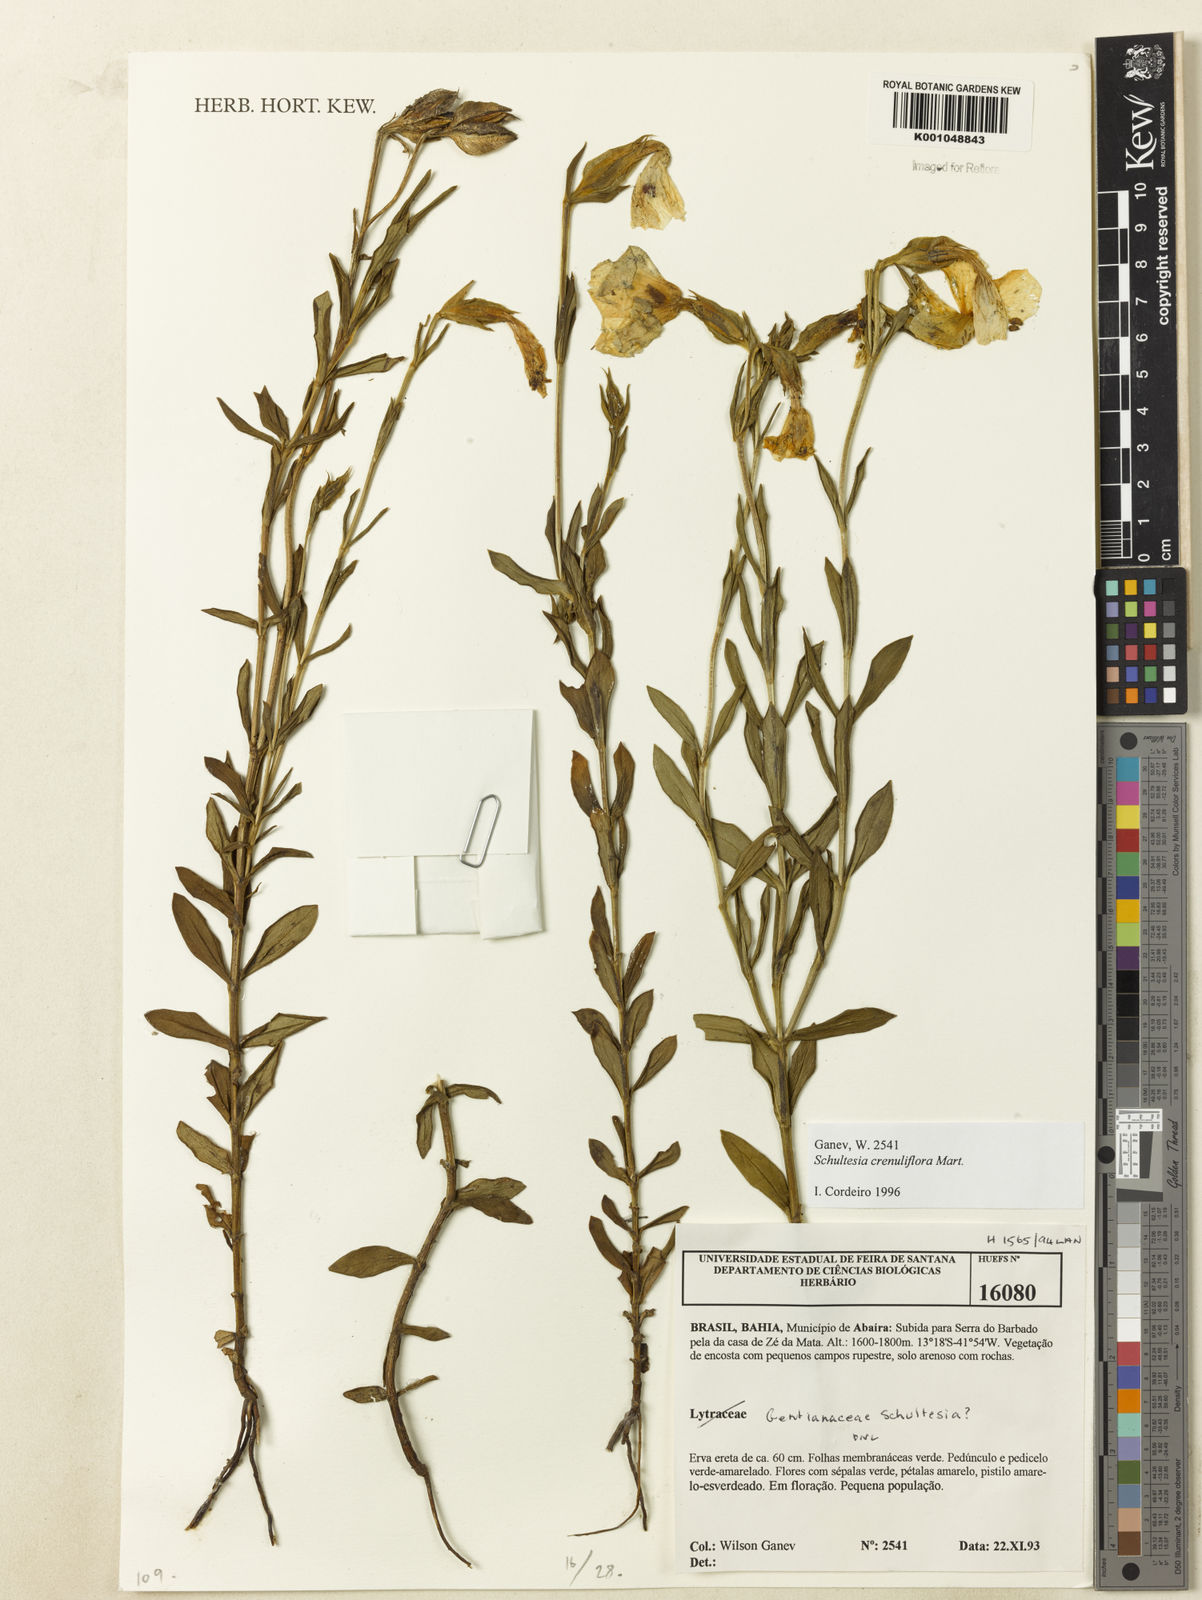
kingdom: Plantae
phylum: Tracheophyta
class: Magnoliopsida
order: Gentianales
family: Gentianaceae
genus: Schultesia
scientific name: Schultesia crenuliflora
